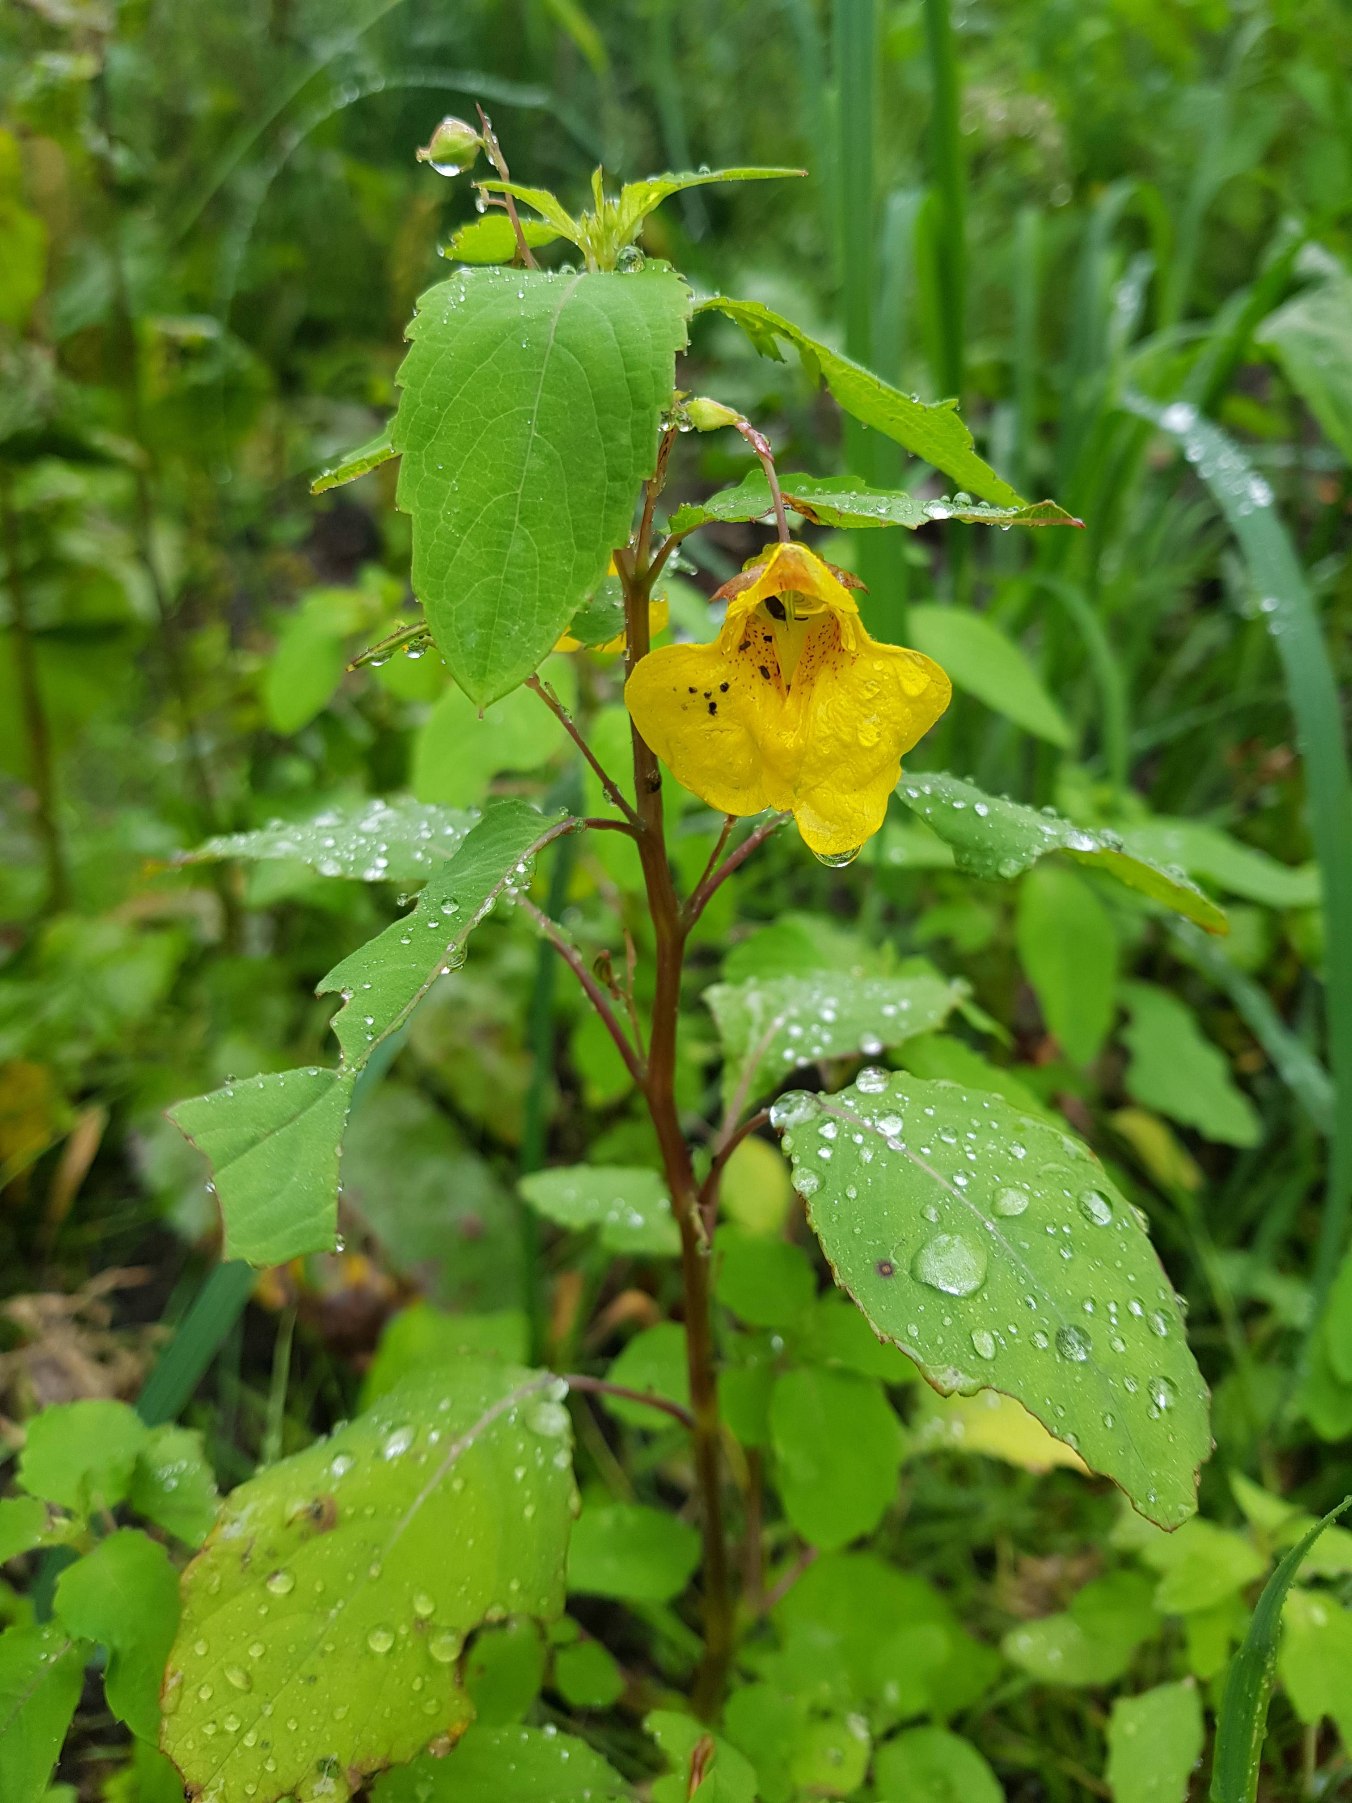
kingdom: Plantae
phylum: Tracheophyta
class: Magnoliopsida
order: Ericales
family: Balsaminaceae
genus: Impatiens
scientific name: Impatiens noli-tangere
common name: Spring-balsamin
